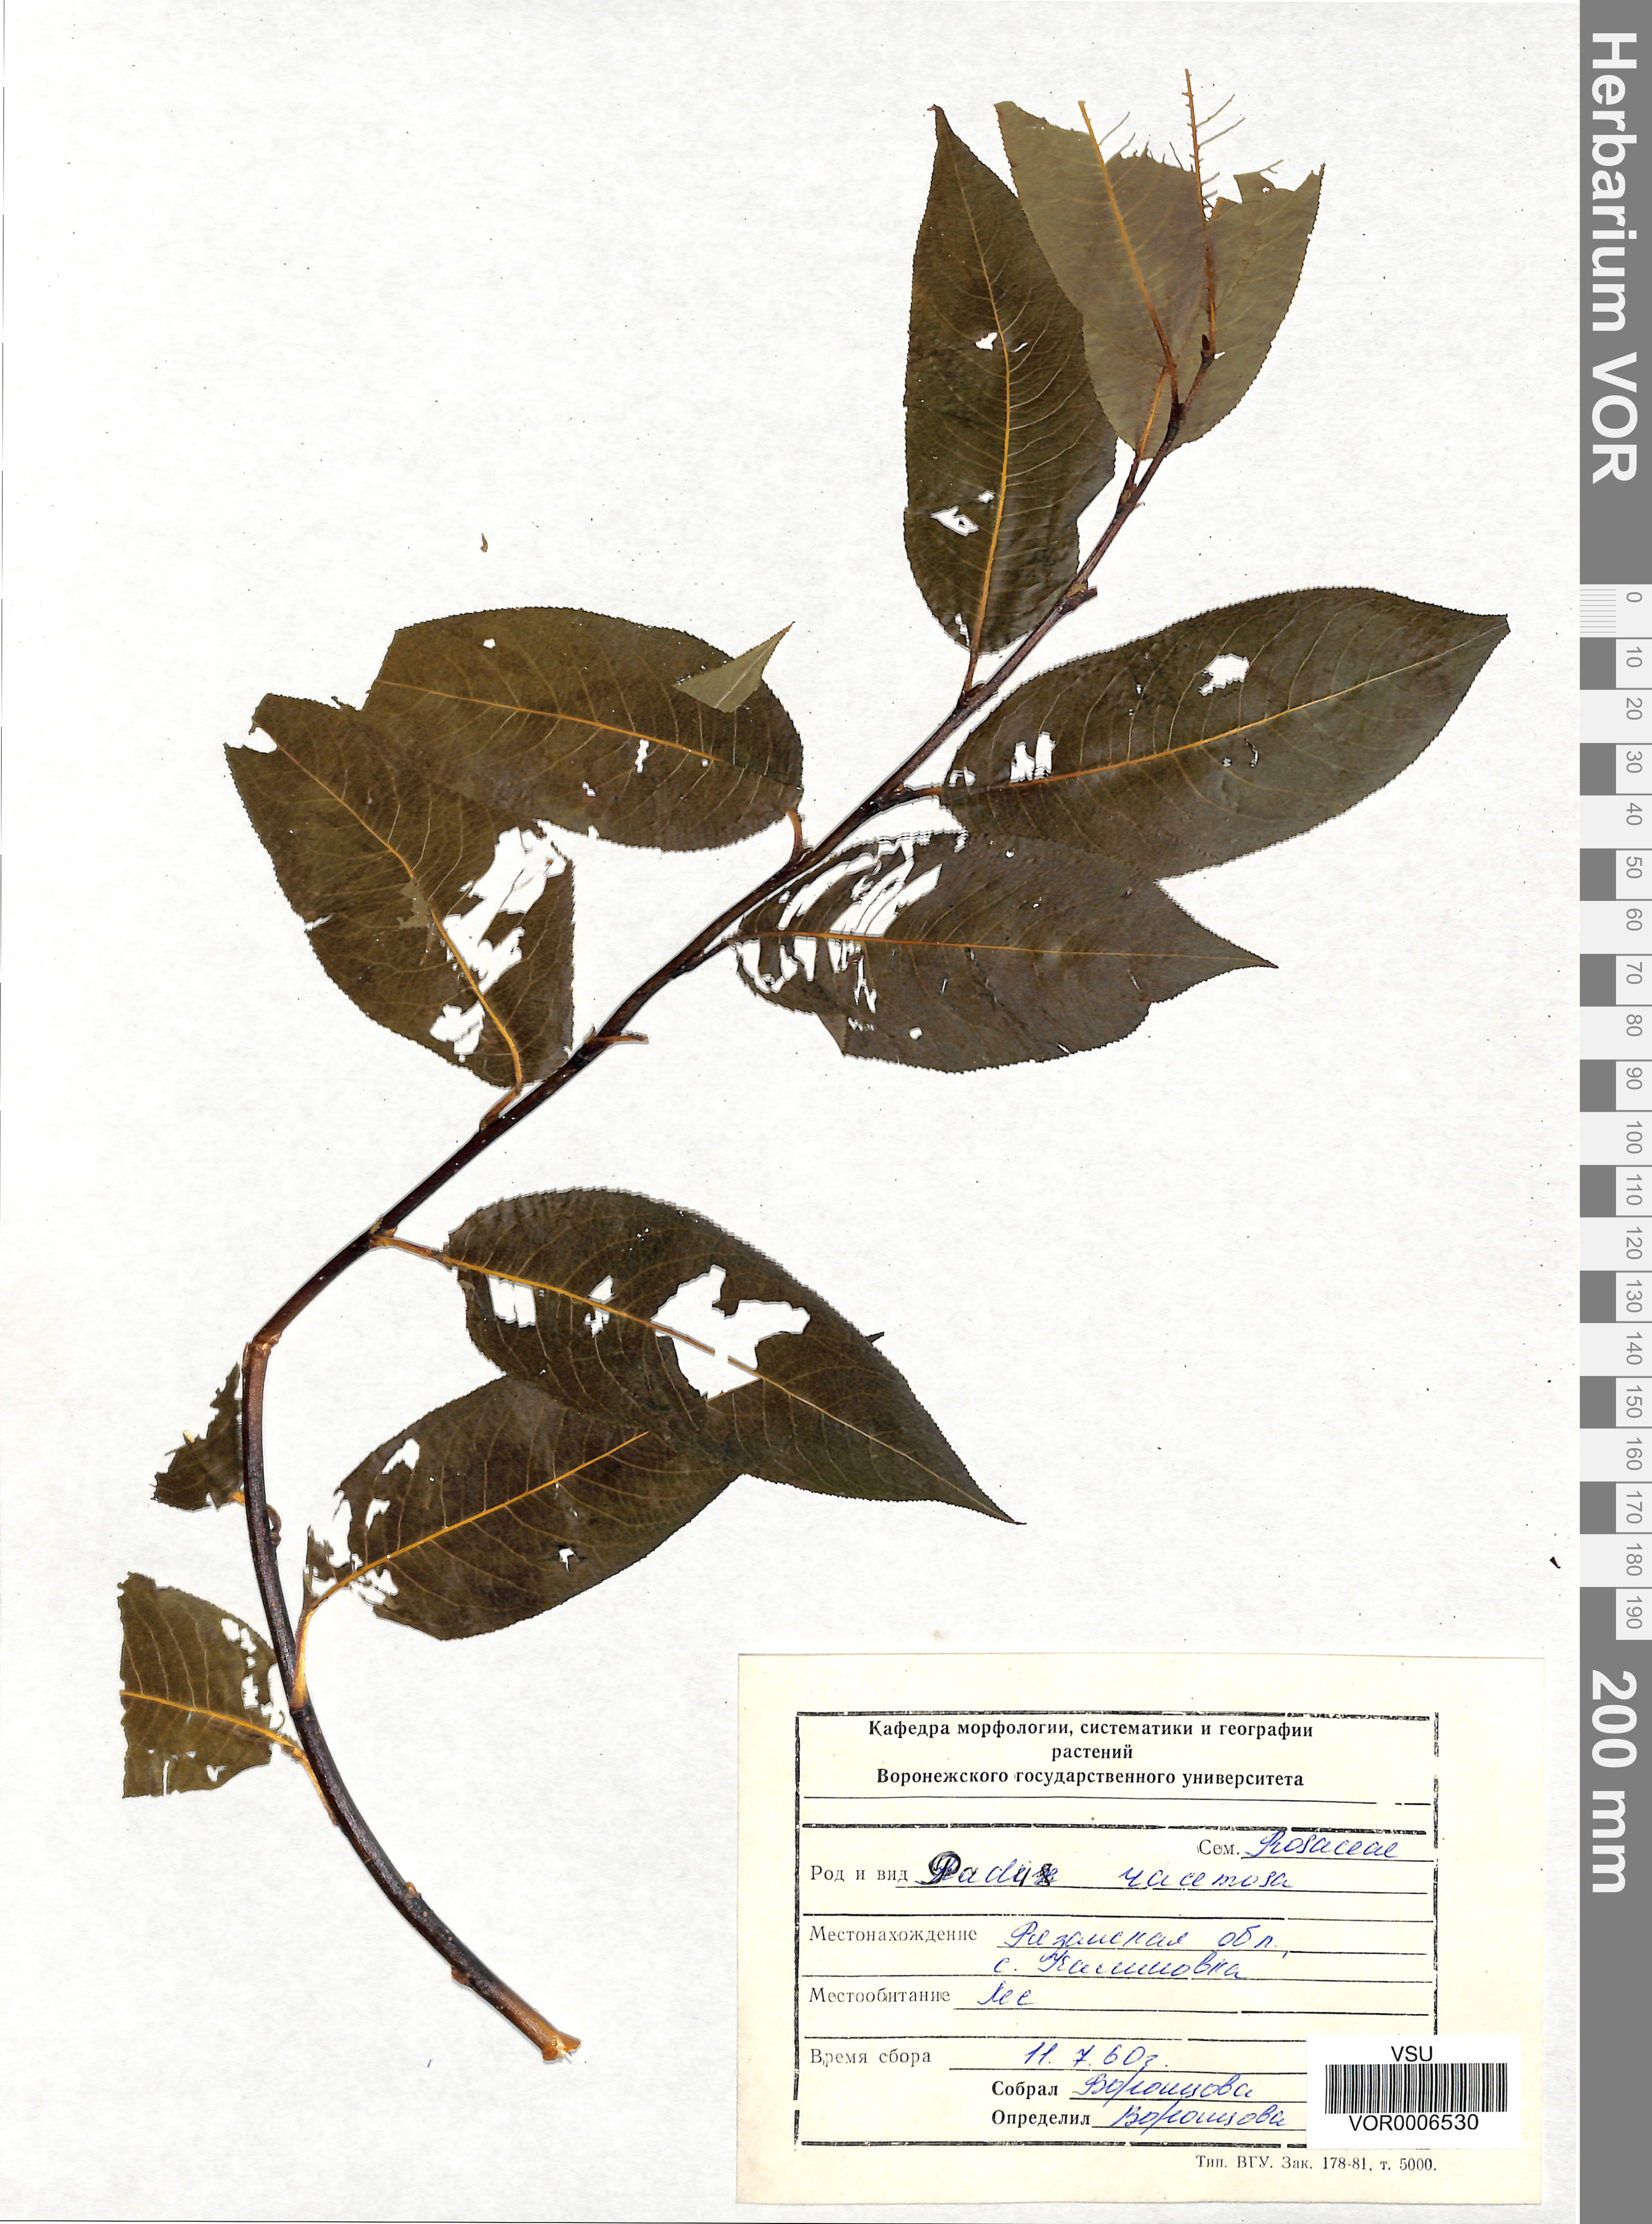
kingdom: Plantae
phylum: Tracheophyta
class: Magnoliopsida
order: Rosales
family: Rosaceae
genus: Prunus
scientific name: Prunus padus
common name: Bird cherry
